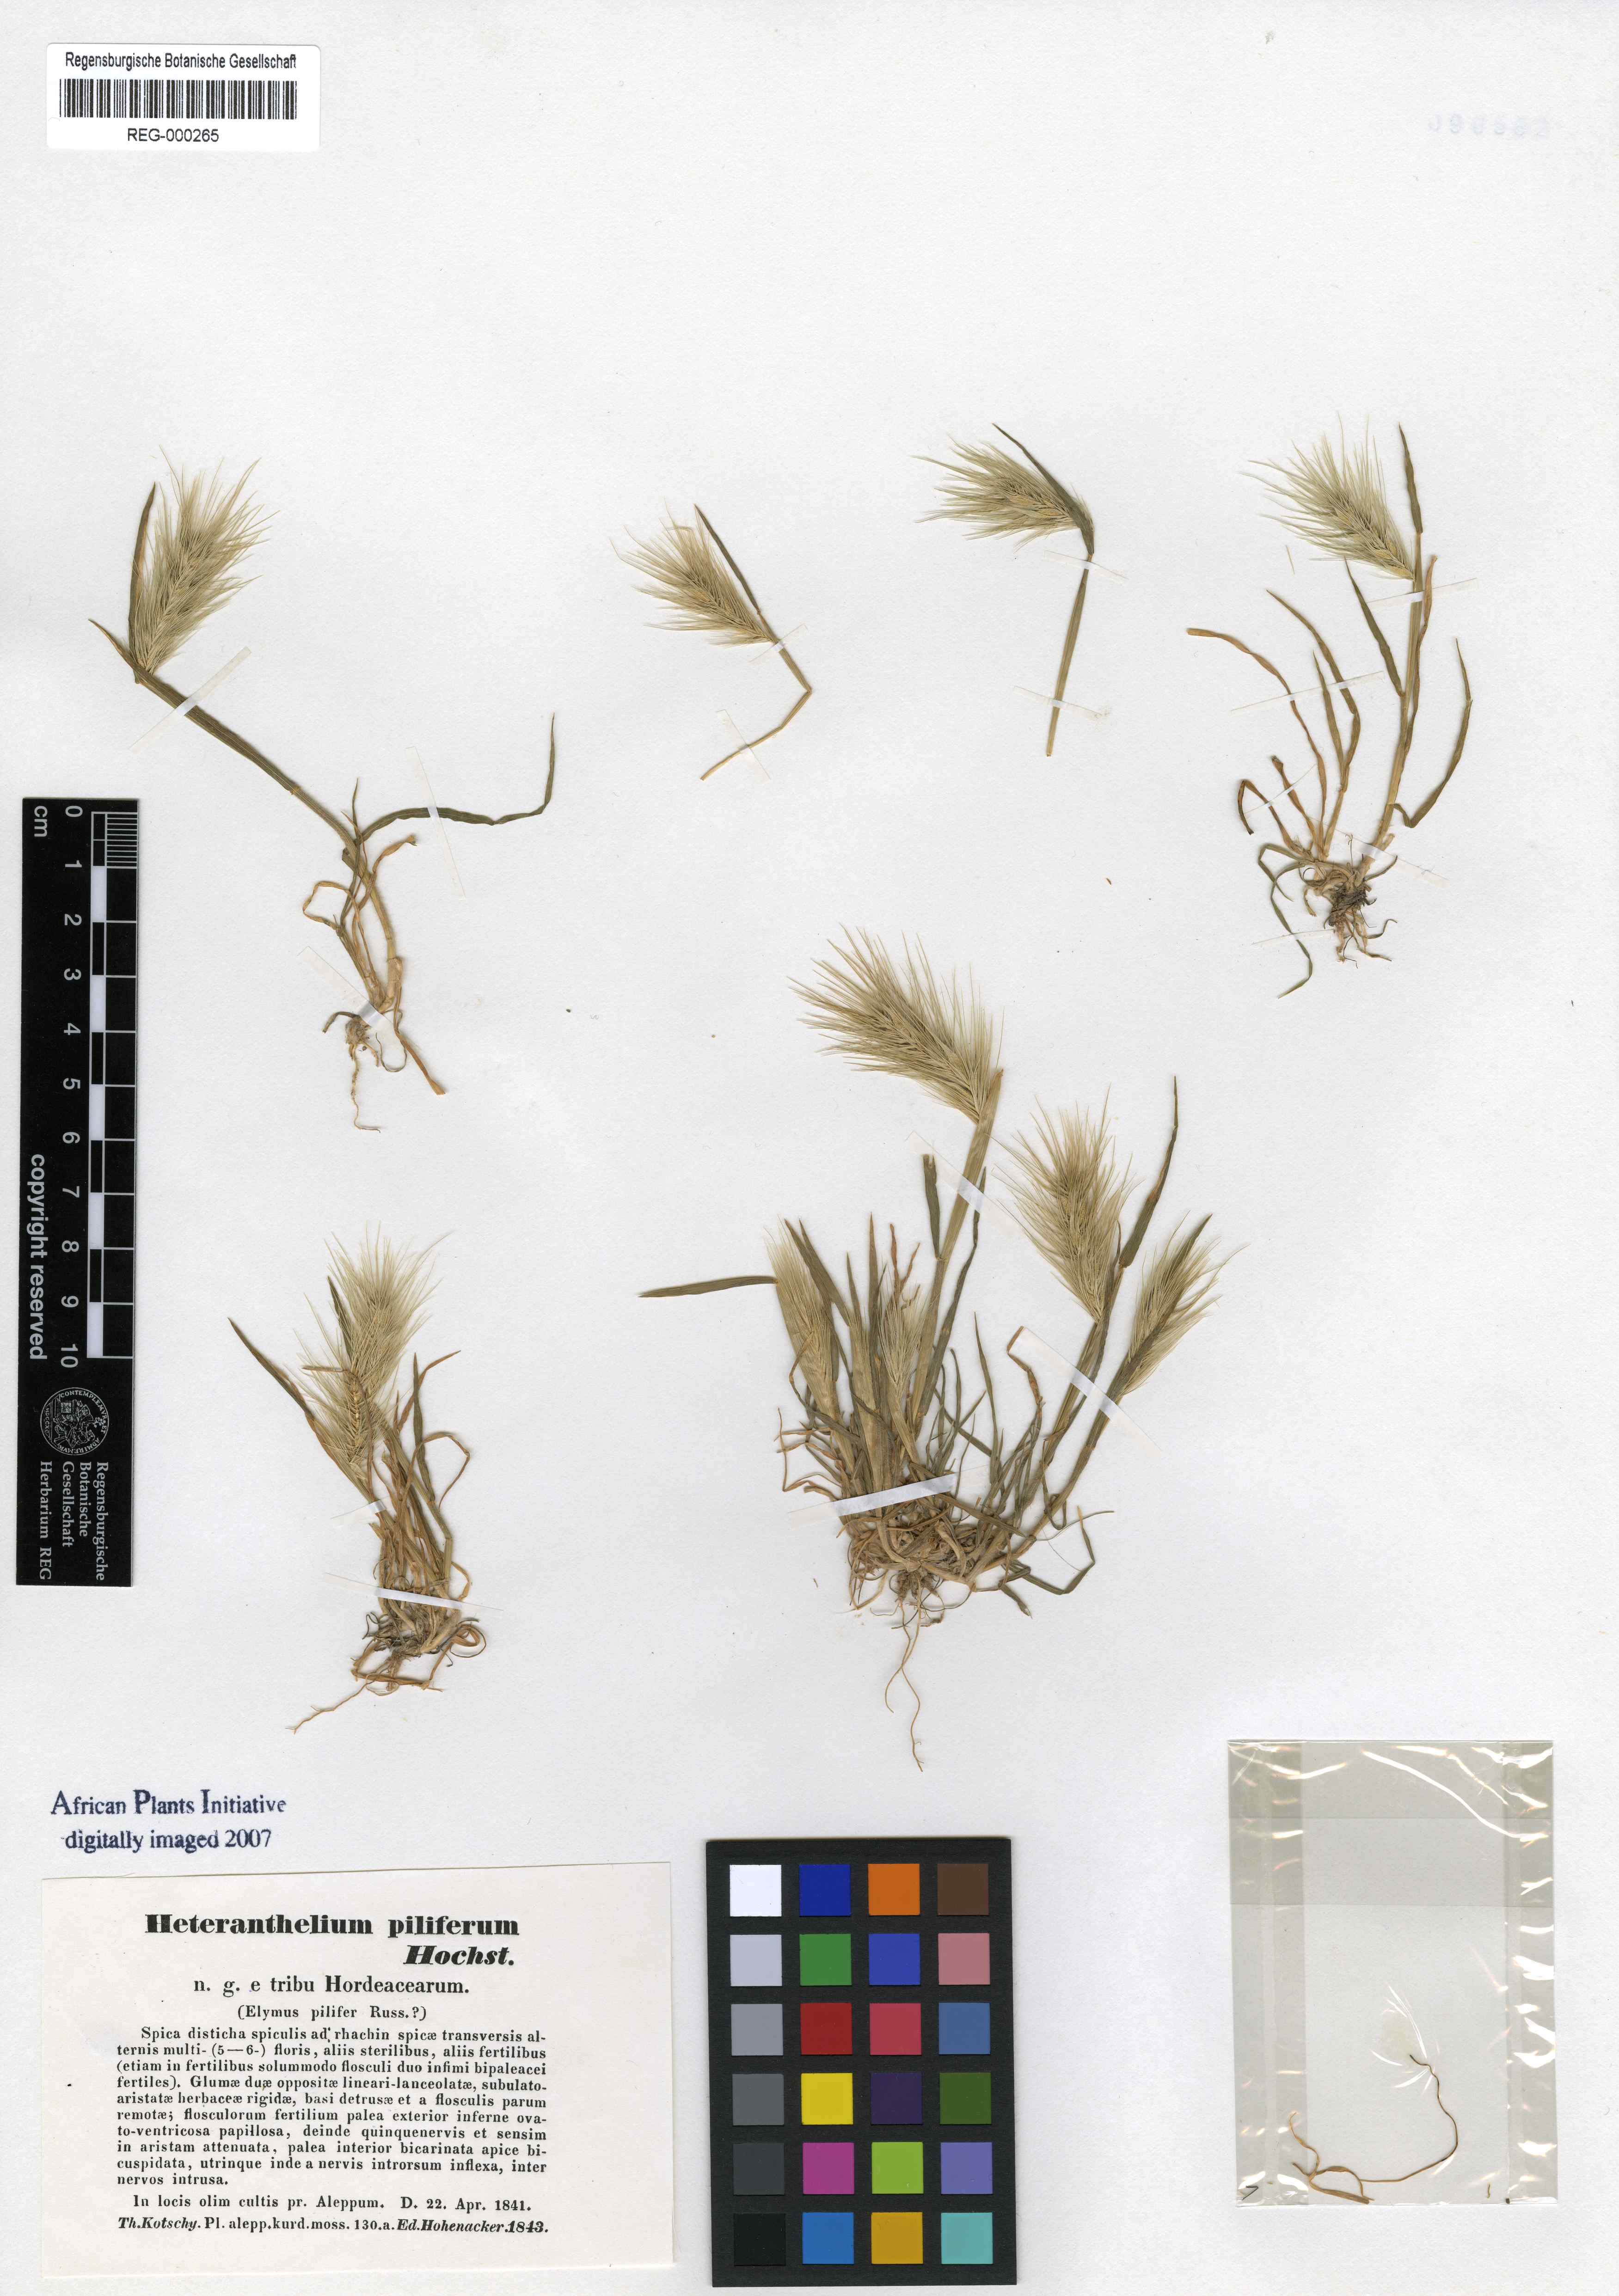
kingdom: Plantae
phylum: Tracheophyta
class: Liliopsida
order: Poales
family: Poaceae
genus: Heteranthelium
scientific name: Heteranthelium piliferum
